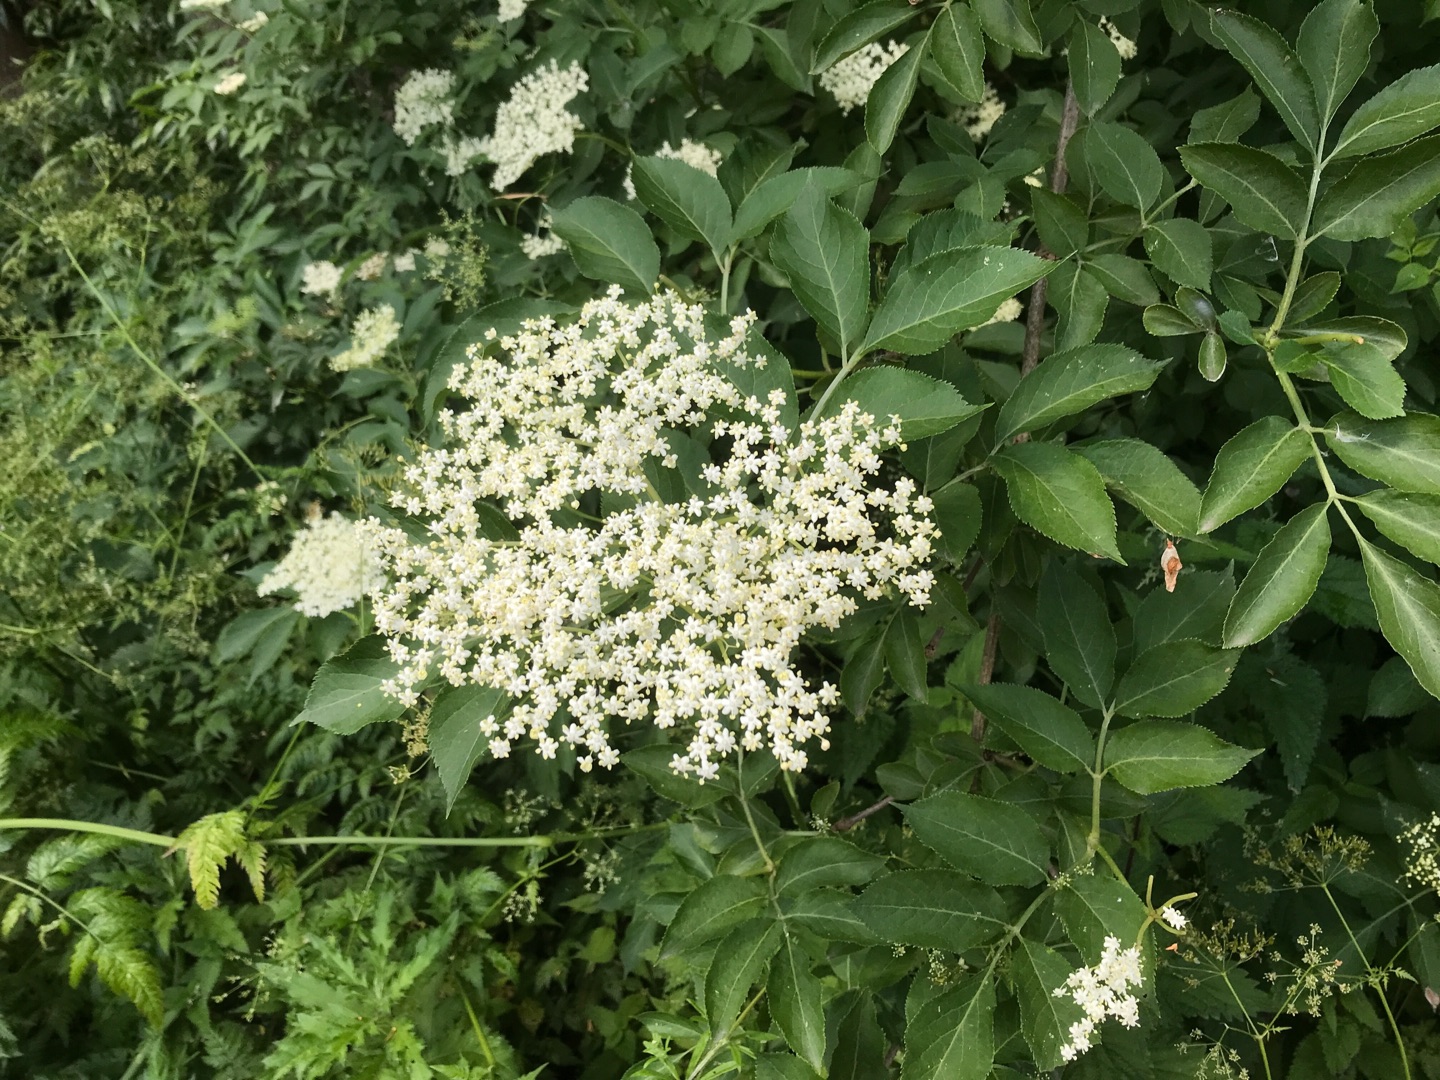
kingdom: Plantae
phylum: Tracheophyta
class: Magnoliopsida
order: Dipsacales
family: Viburnaceae
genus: Sambucus
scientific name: Sambucus nigra
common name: Almindelig hyld
